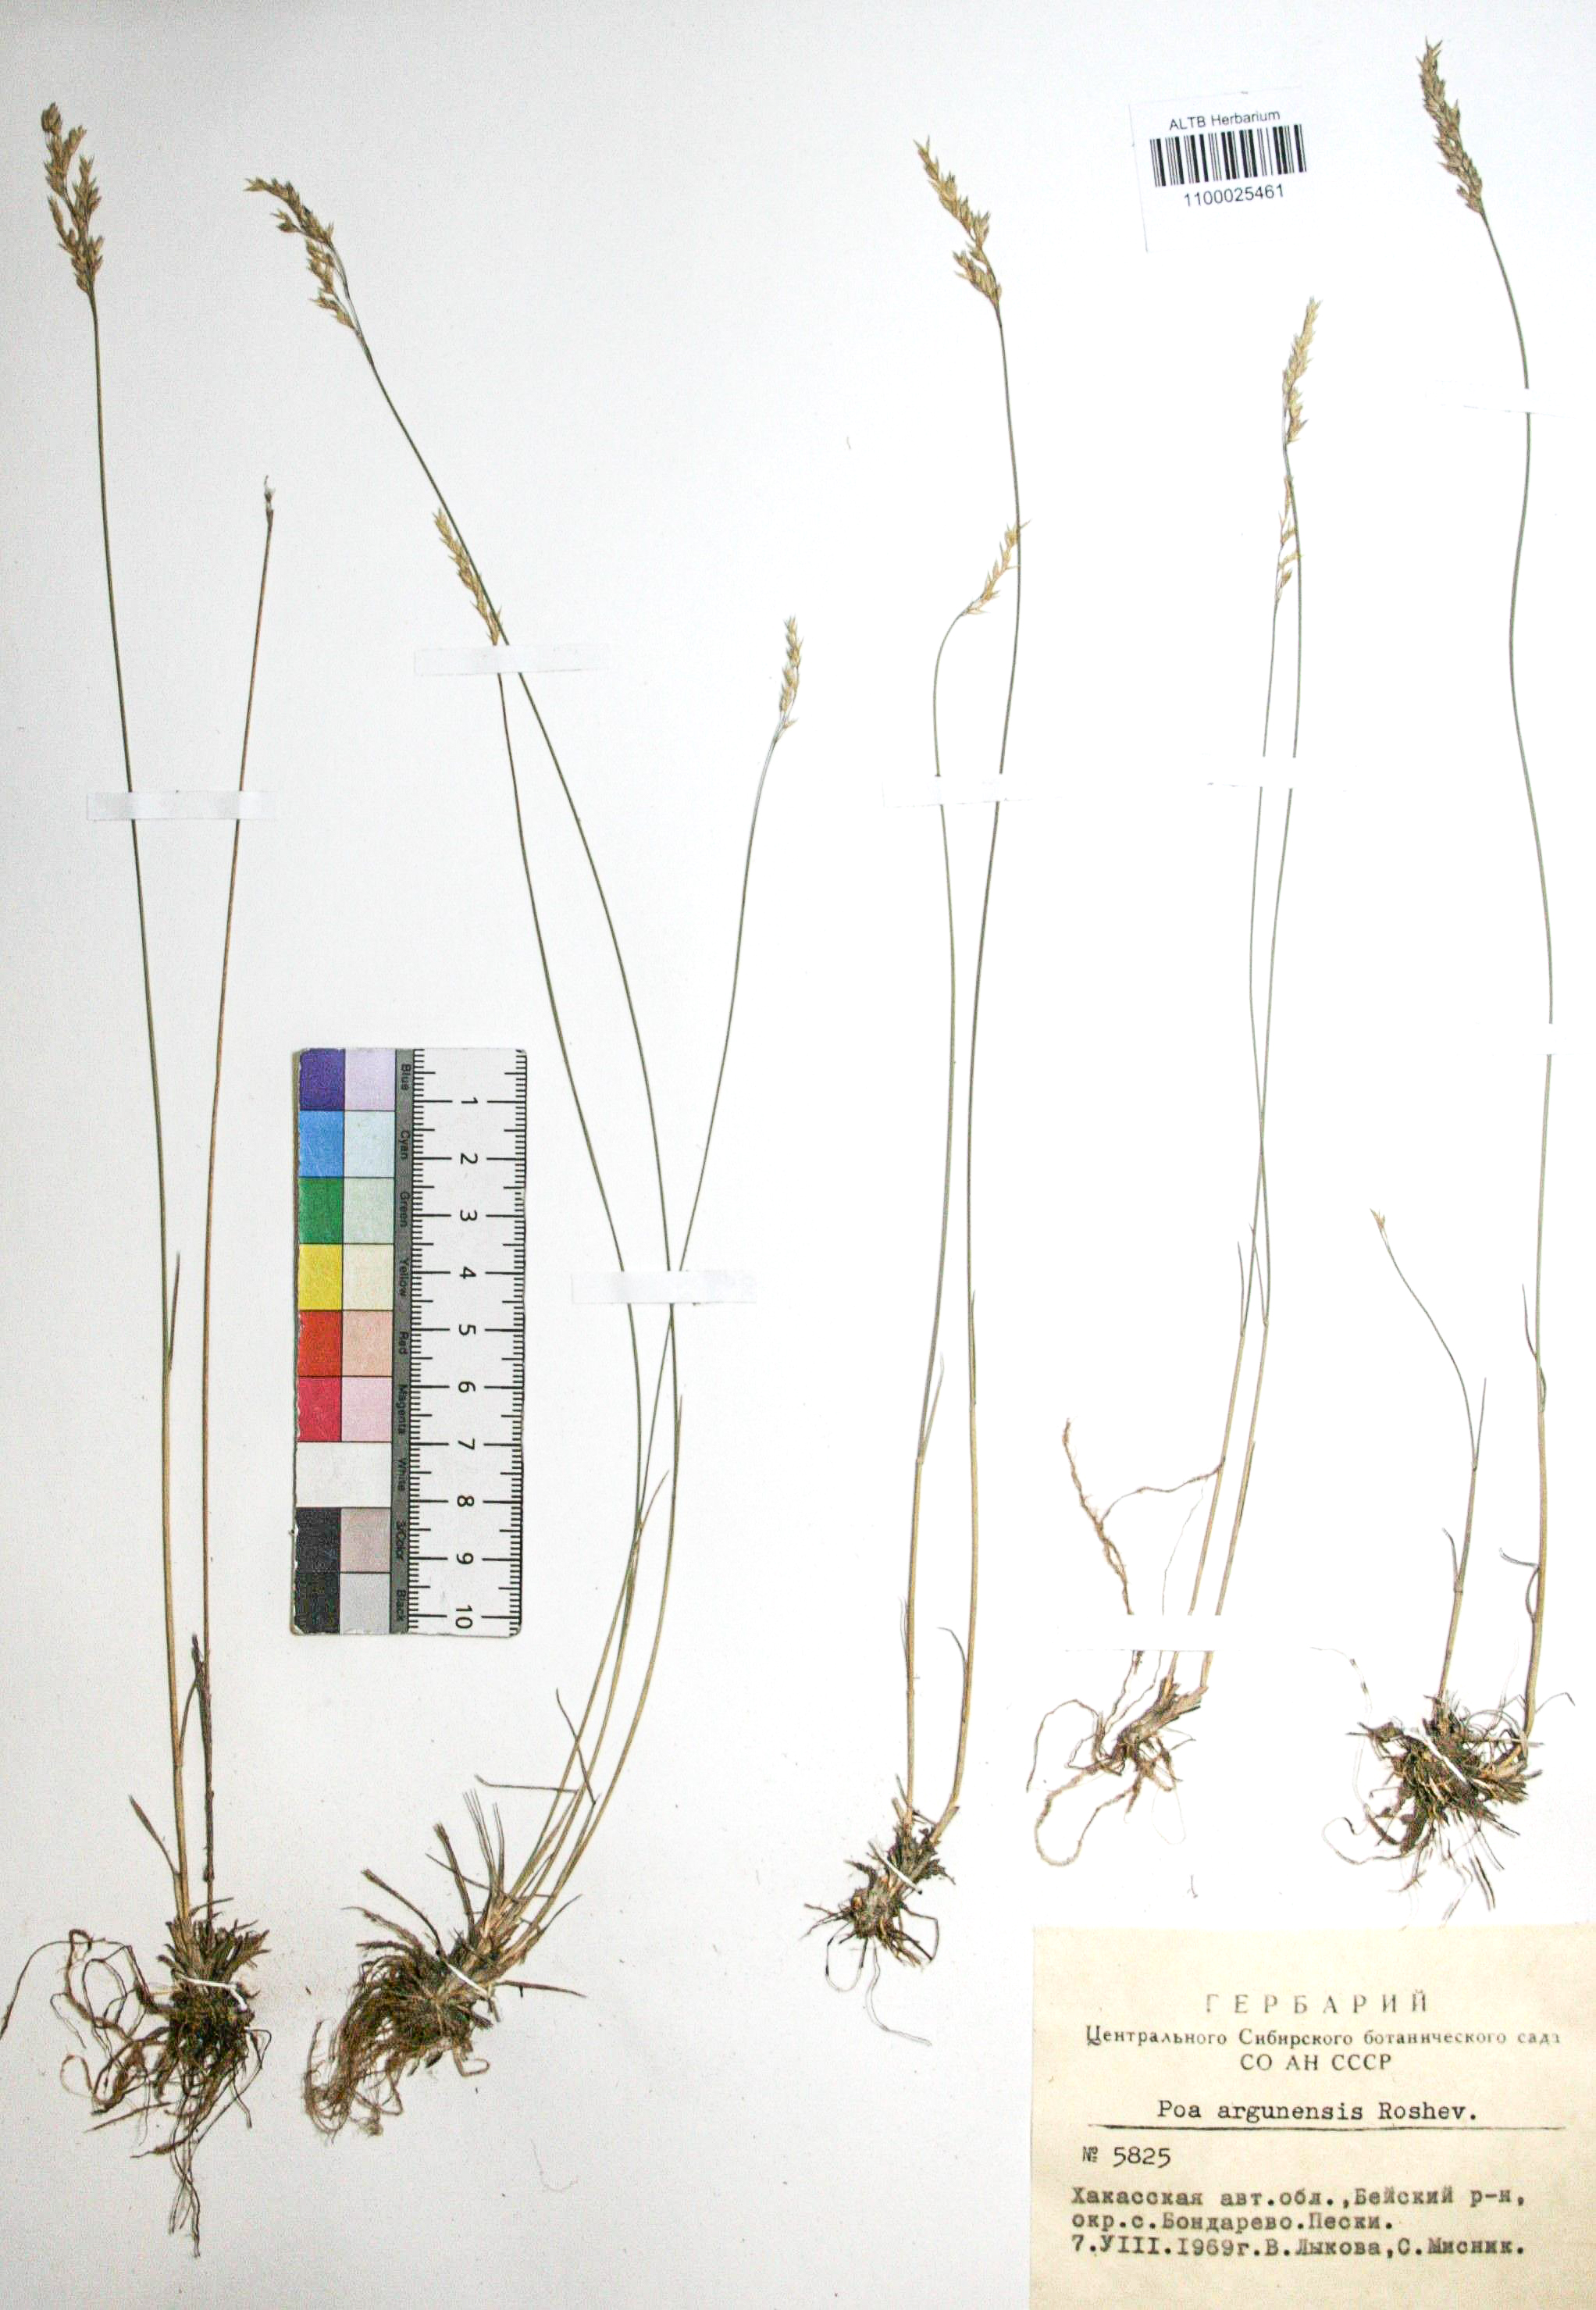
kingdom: Plantae
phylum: Tracheophyta
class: Liliopsida
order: Poales
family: Poaceae
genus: Poa
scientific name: Poa attenuata
